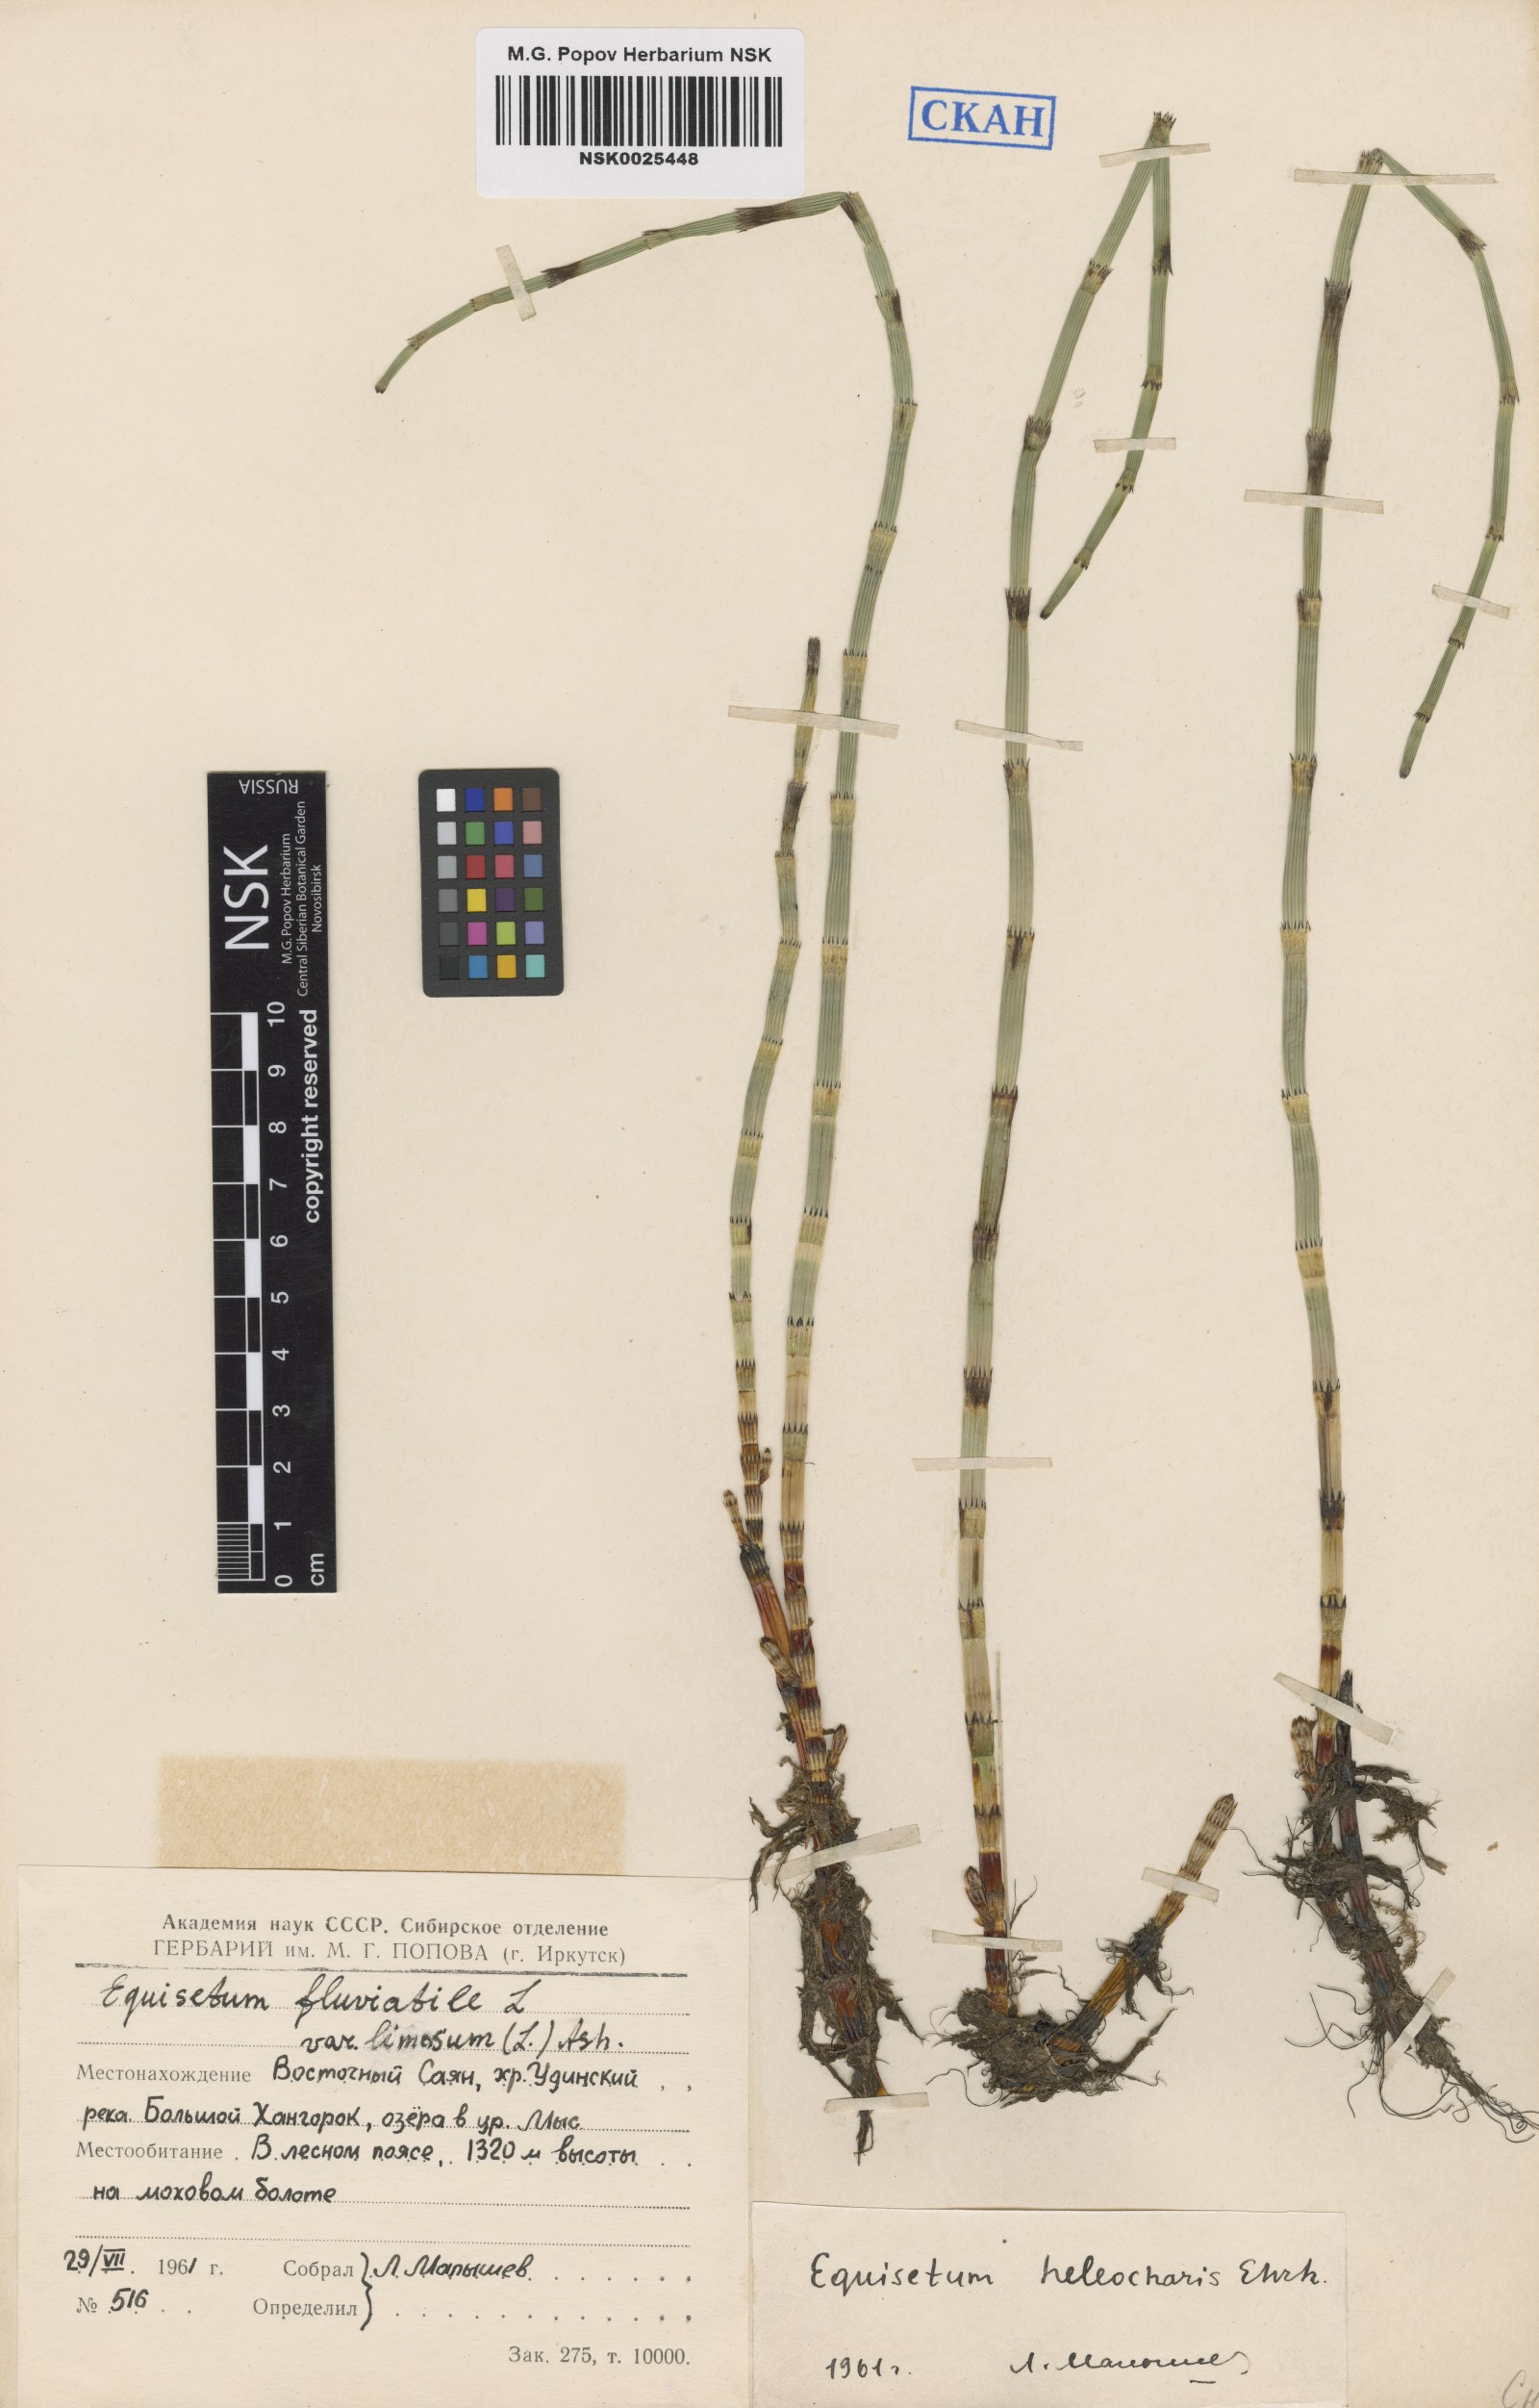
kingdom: Plantae
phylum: Tracheophyta
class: Polypodiopsida
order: Equisetales
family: Equisetaceae
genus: Equisetum
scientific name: Equisetum fluviatile
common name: Water horsetail
